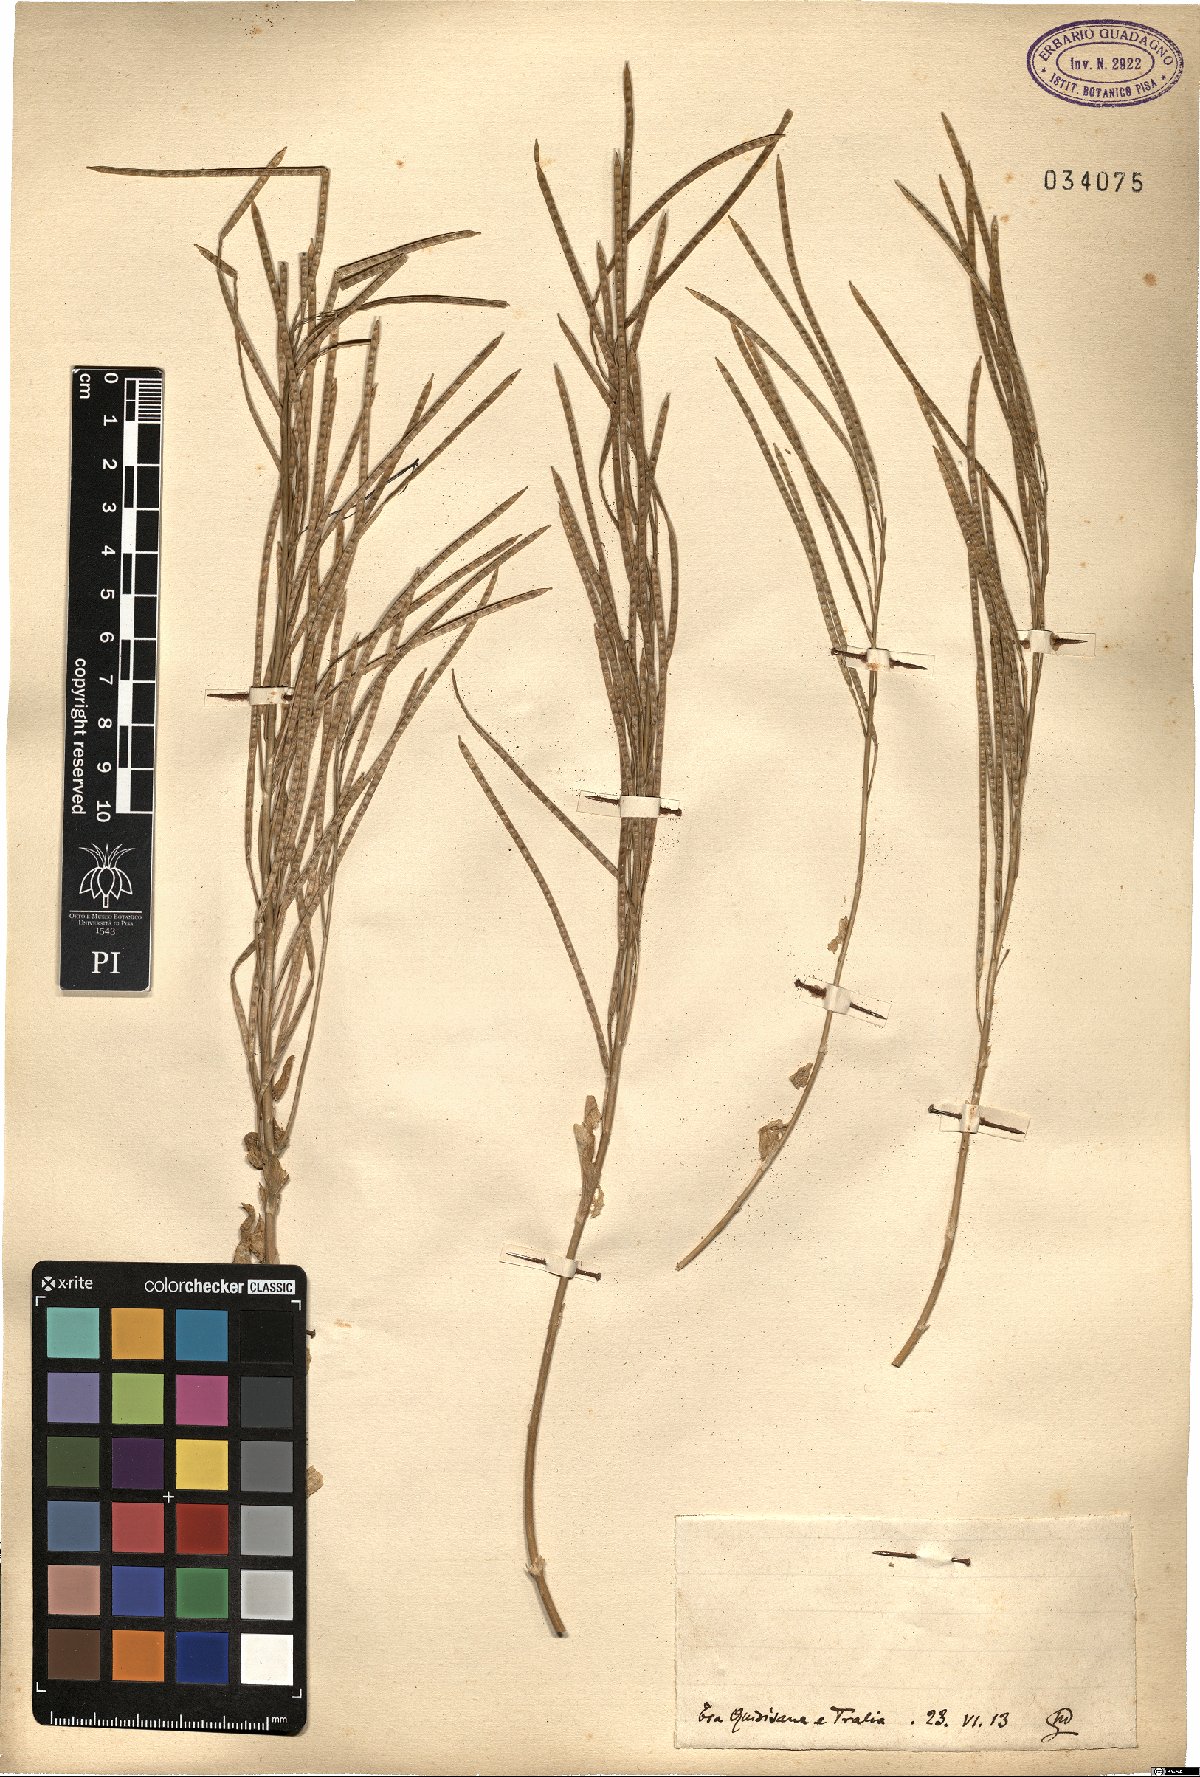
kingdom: Plantae
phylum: Tracheophyta
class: Magnoliopsida
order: Brassicales
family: Brassicaceae
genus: Arabis
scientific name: Arabis
